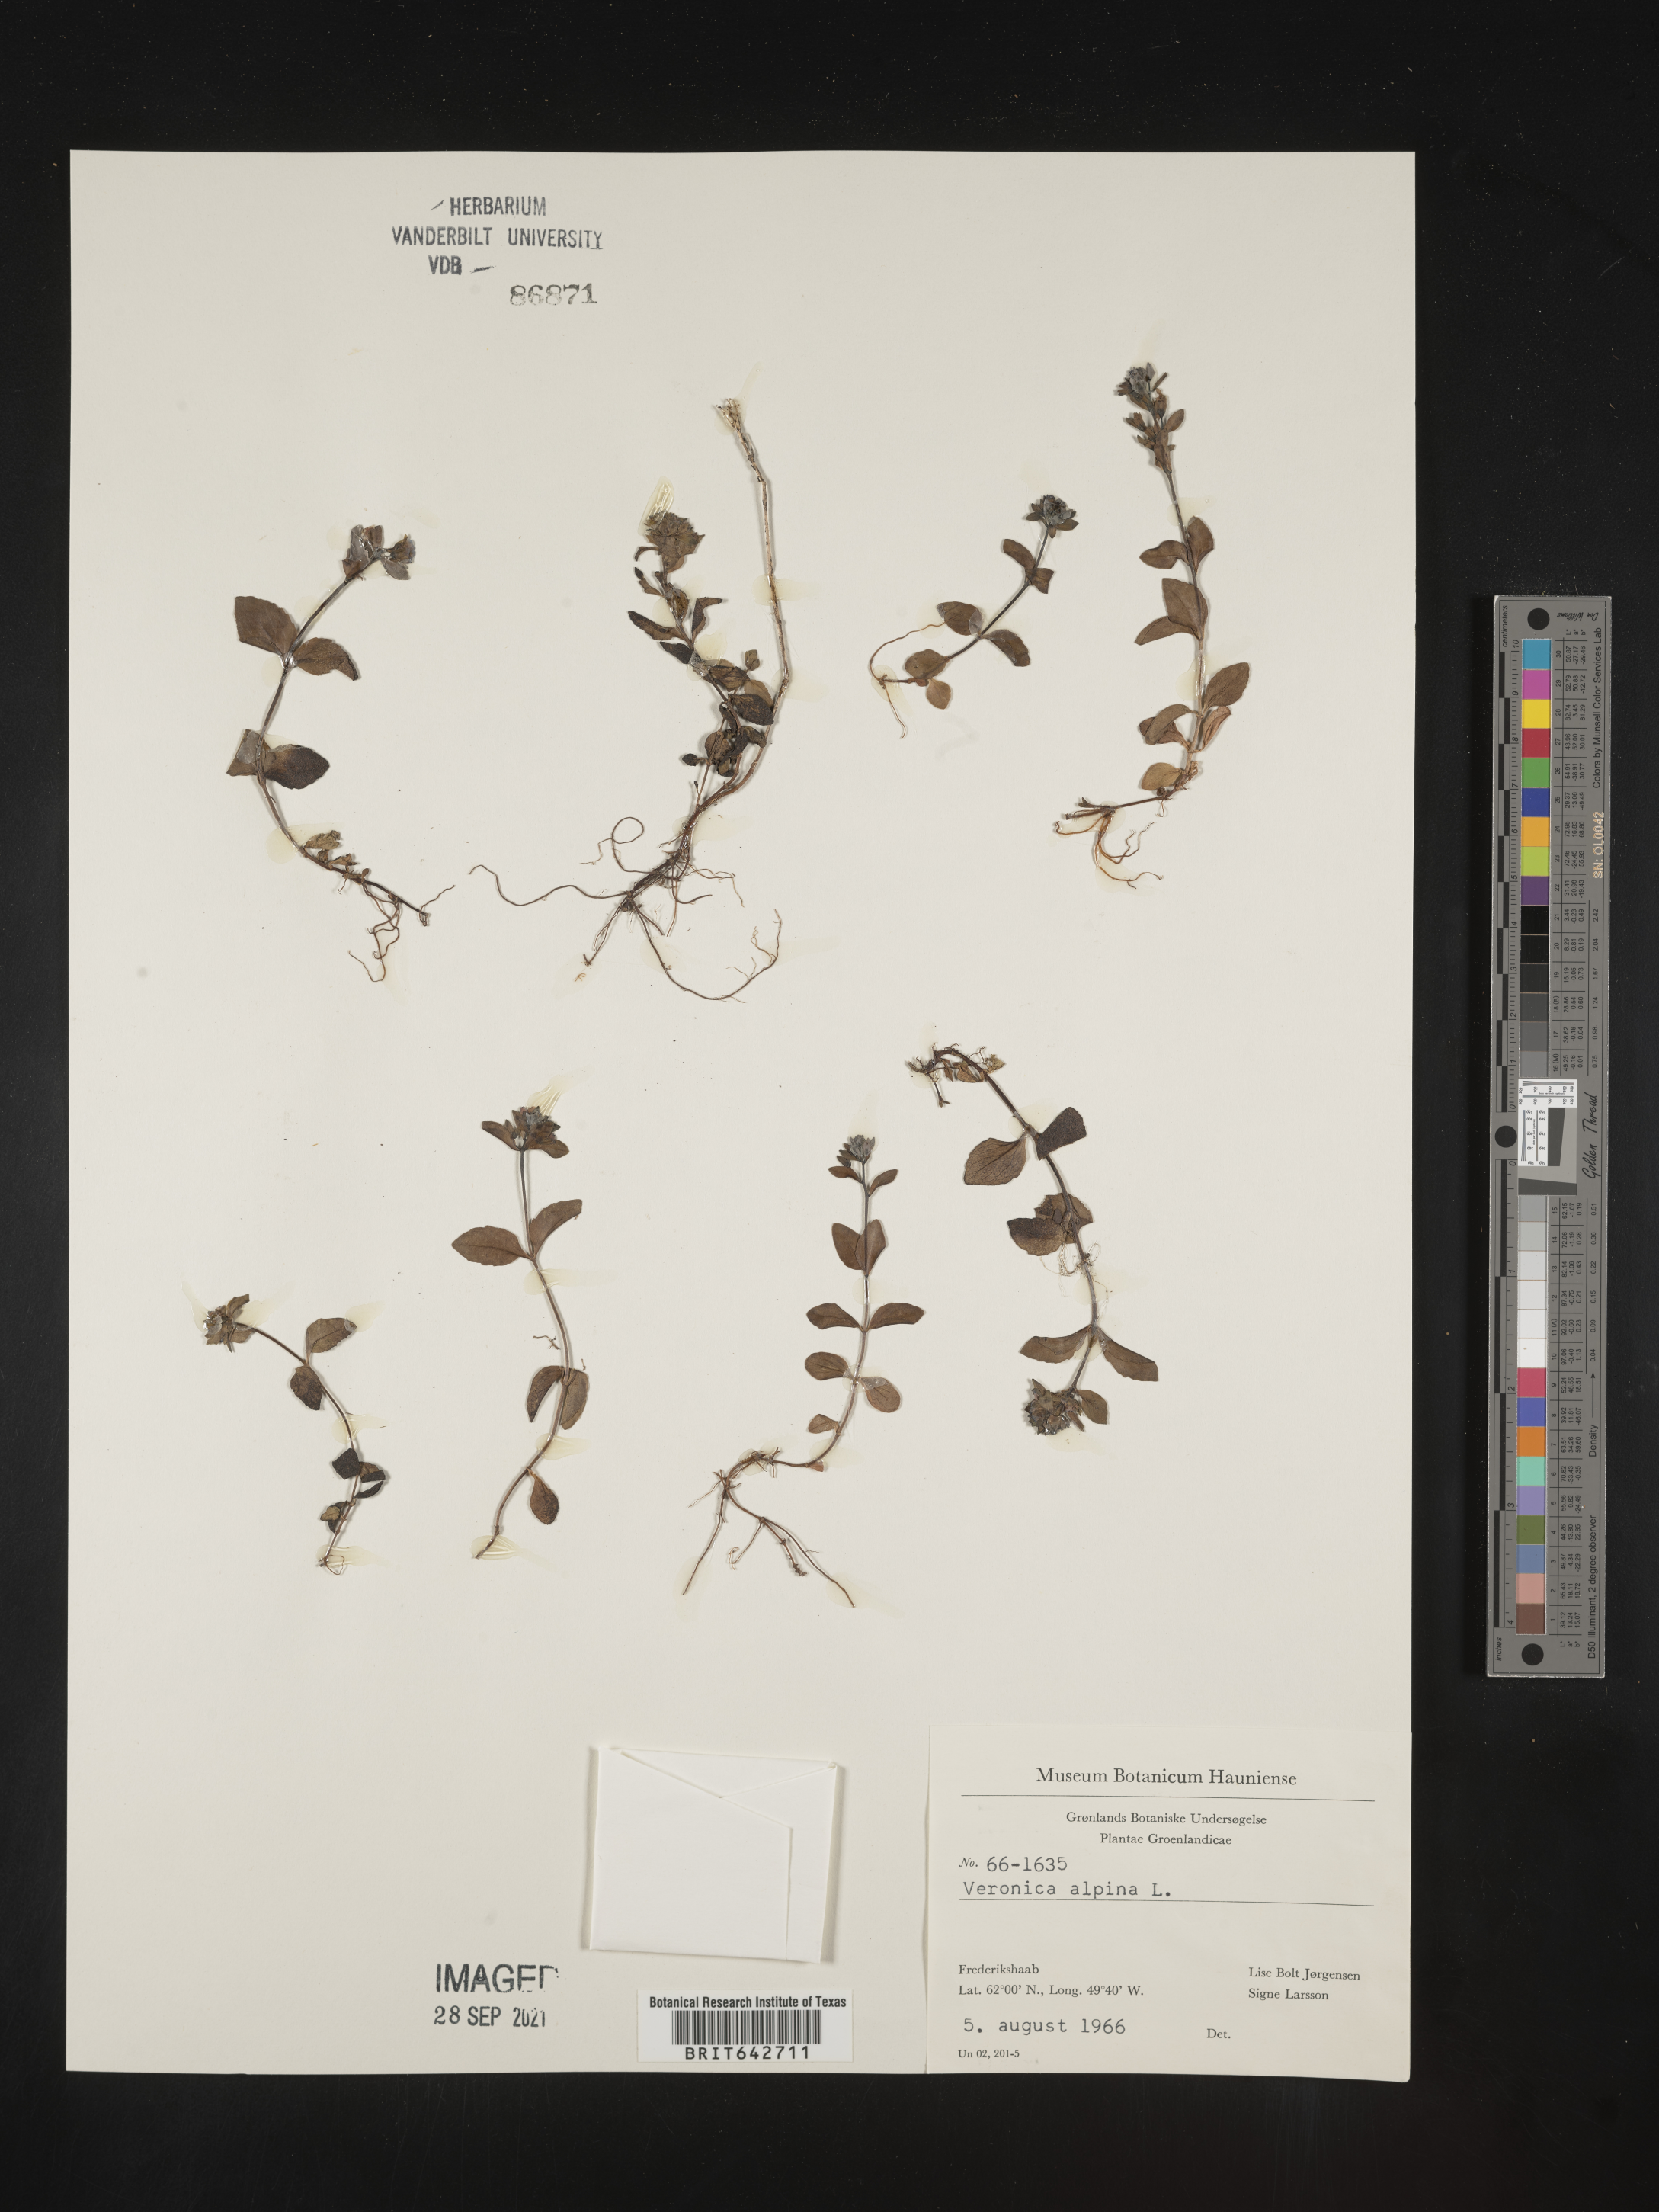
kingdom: Plantae
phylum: Tracheophyta
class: Magnoliopsida
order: Lamiales
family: Plantaginaceae
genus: Veronica
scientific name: Veronica
